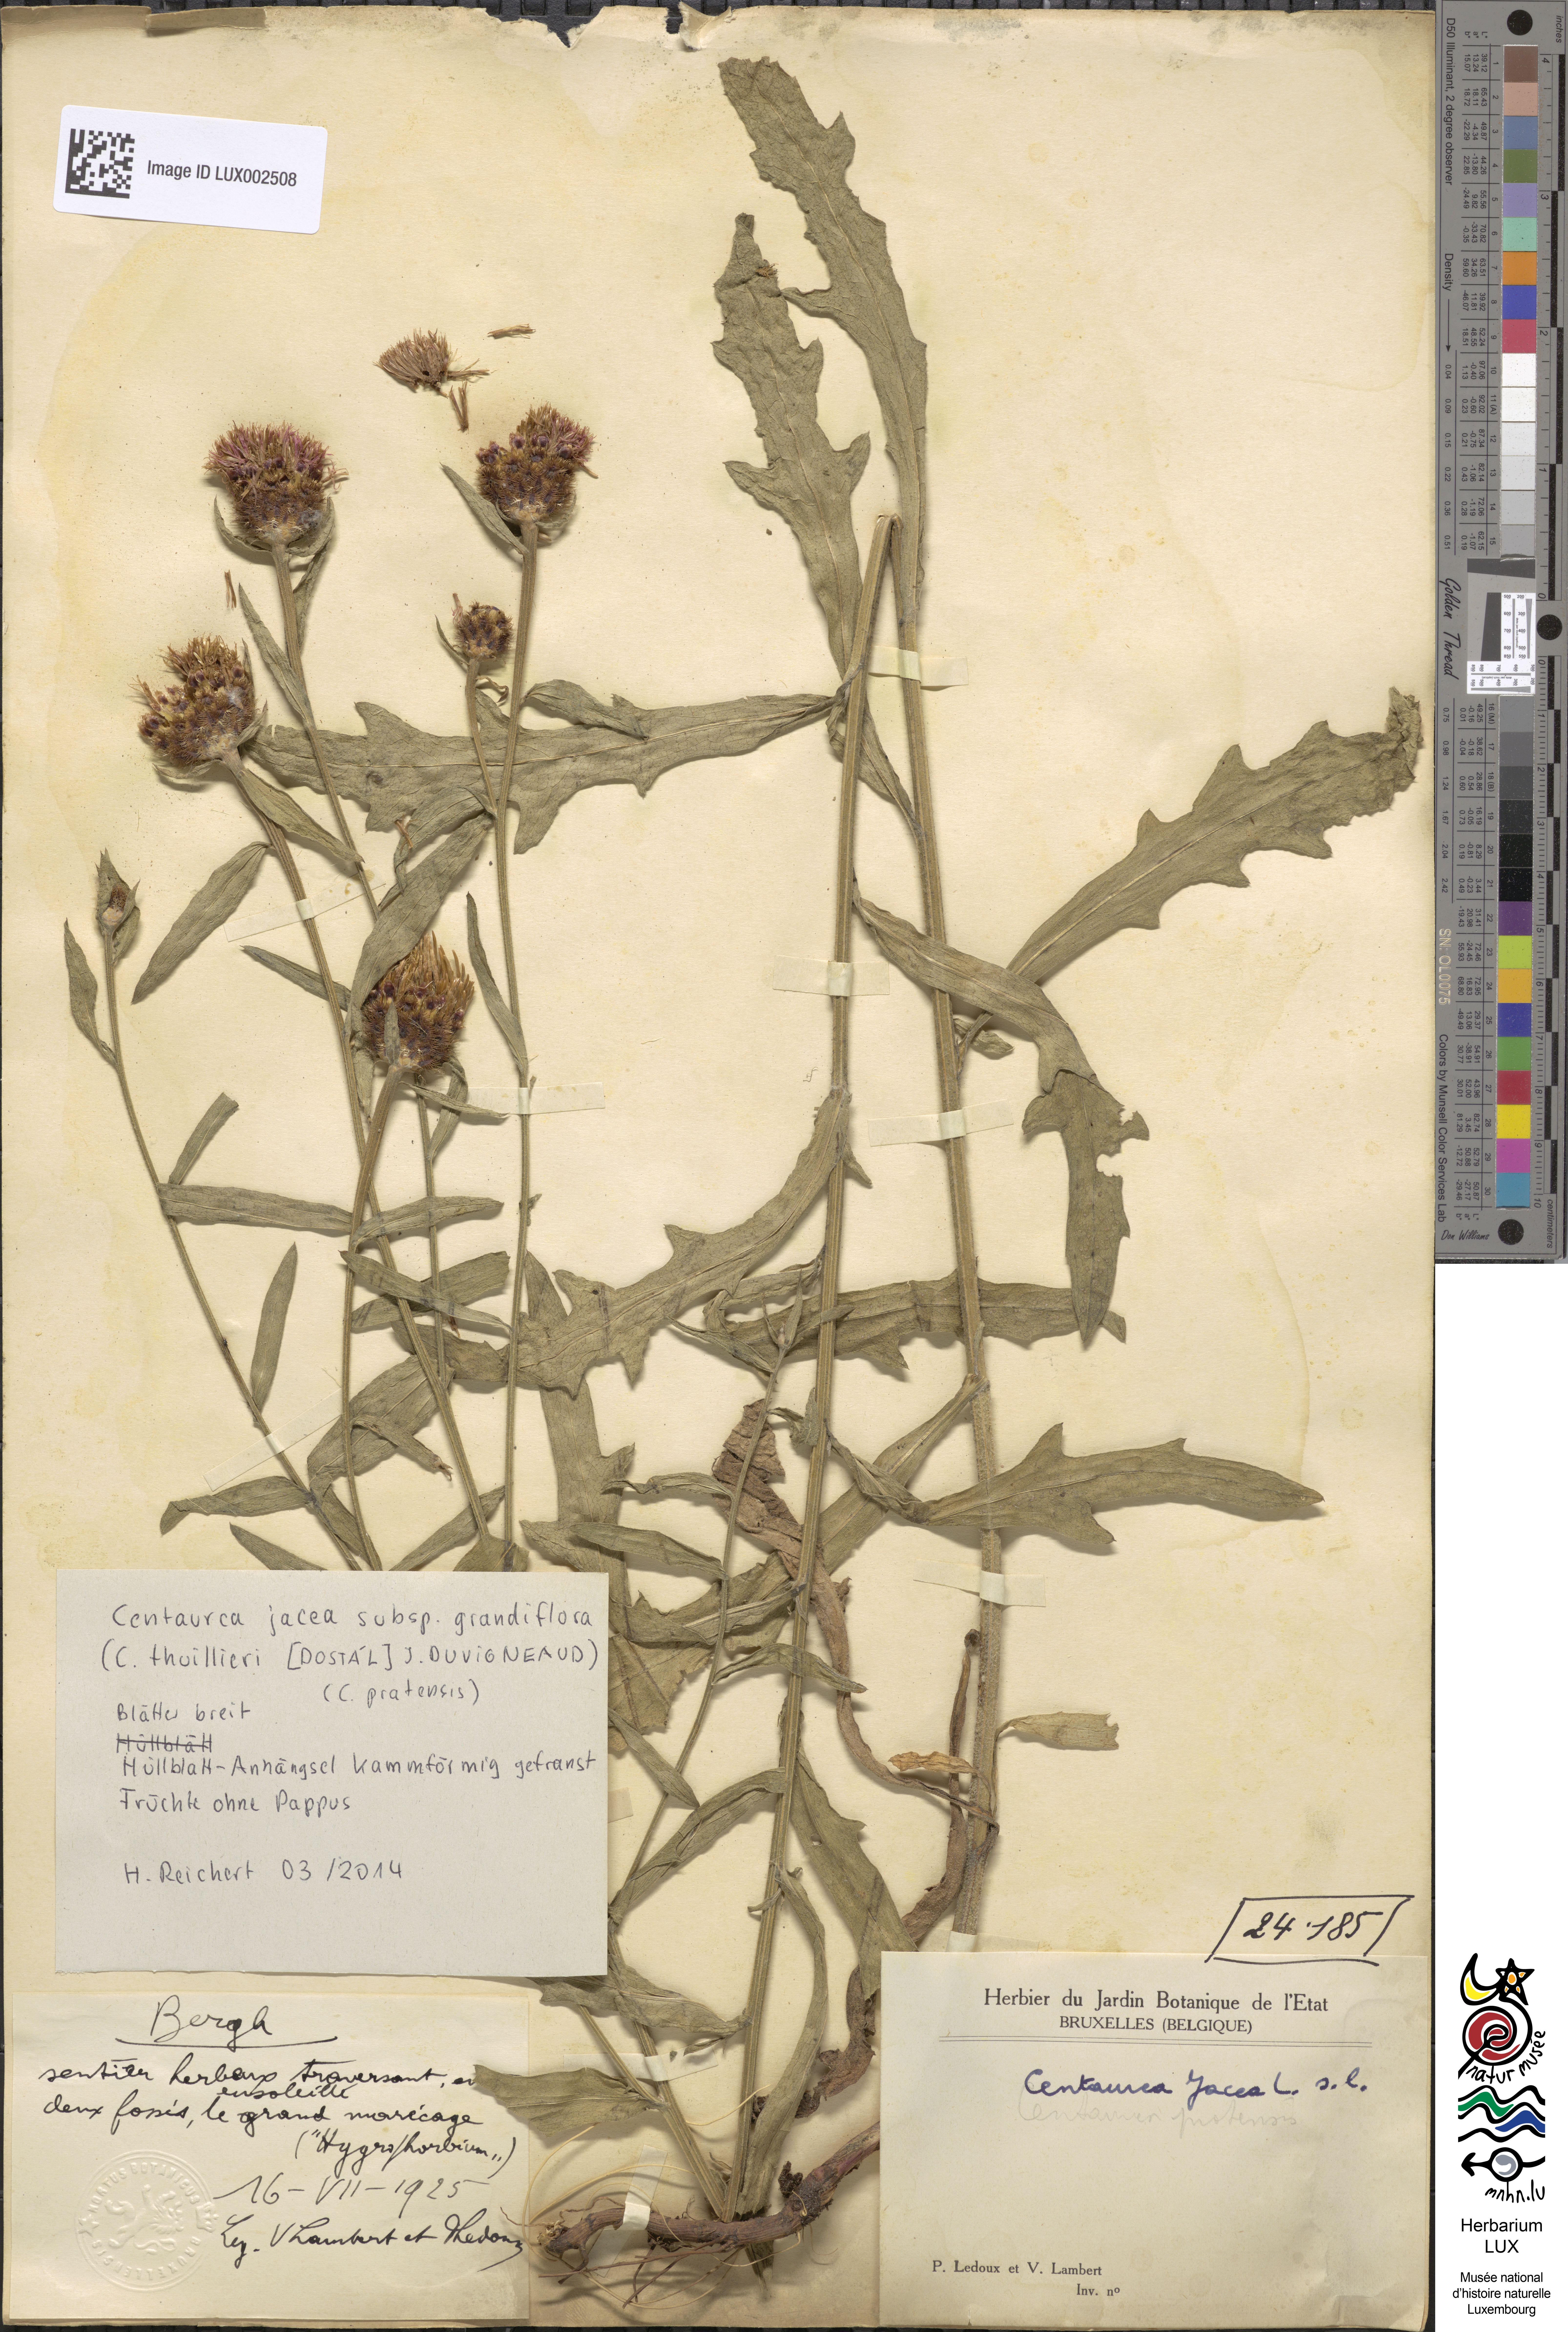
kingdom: Plantae
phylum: Tracheophyta
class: Magnoliopsida
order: Asterales
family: Asteraceae
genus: Centaurea
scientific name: Centaurea jacea
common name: Brown knapweed
